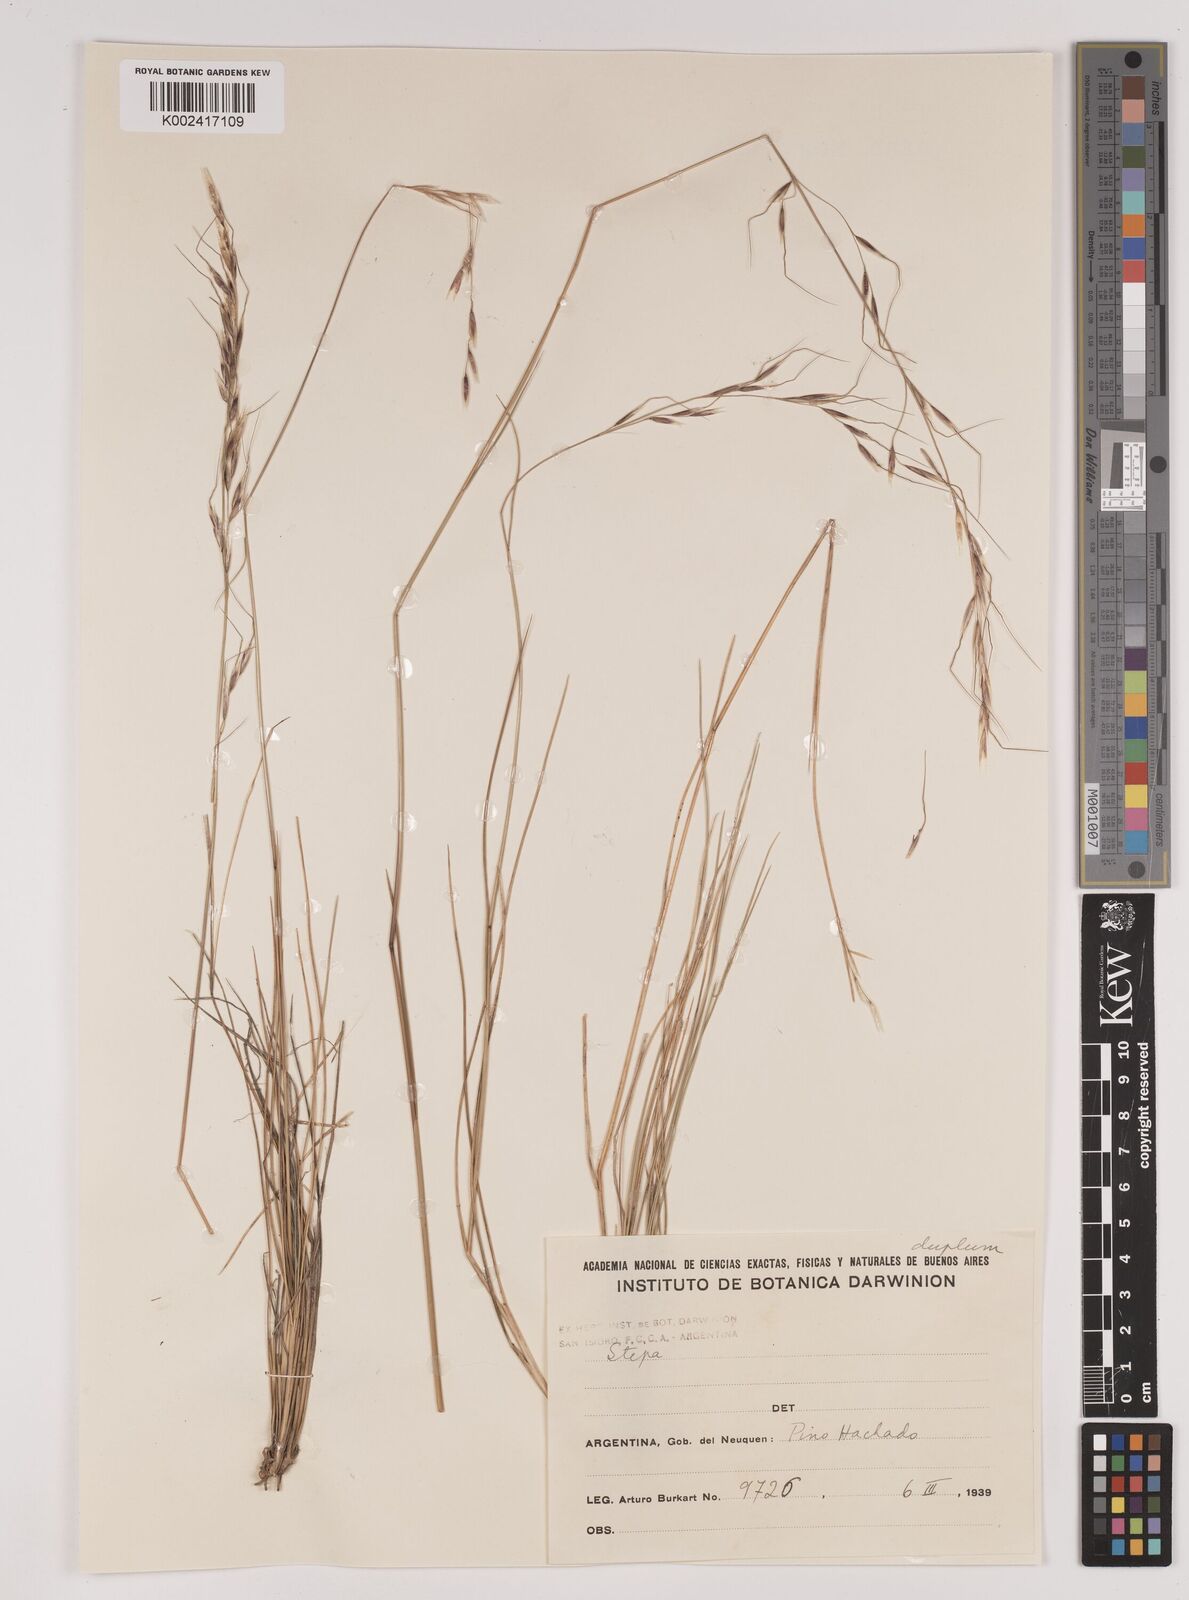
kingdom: Plantae
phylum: Tracheophyta
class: Liliopsida
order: Poales
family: Poaceae
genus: Stipa
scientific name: Stipa
